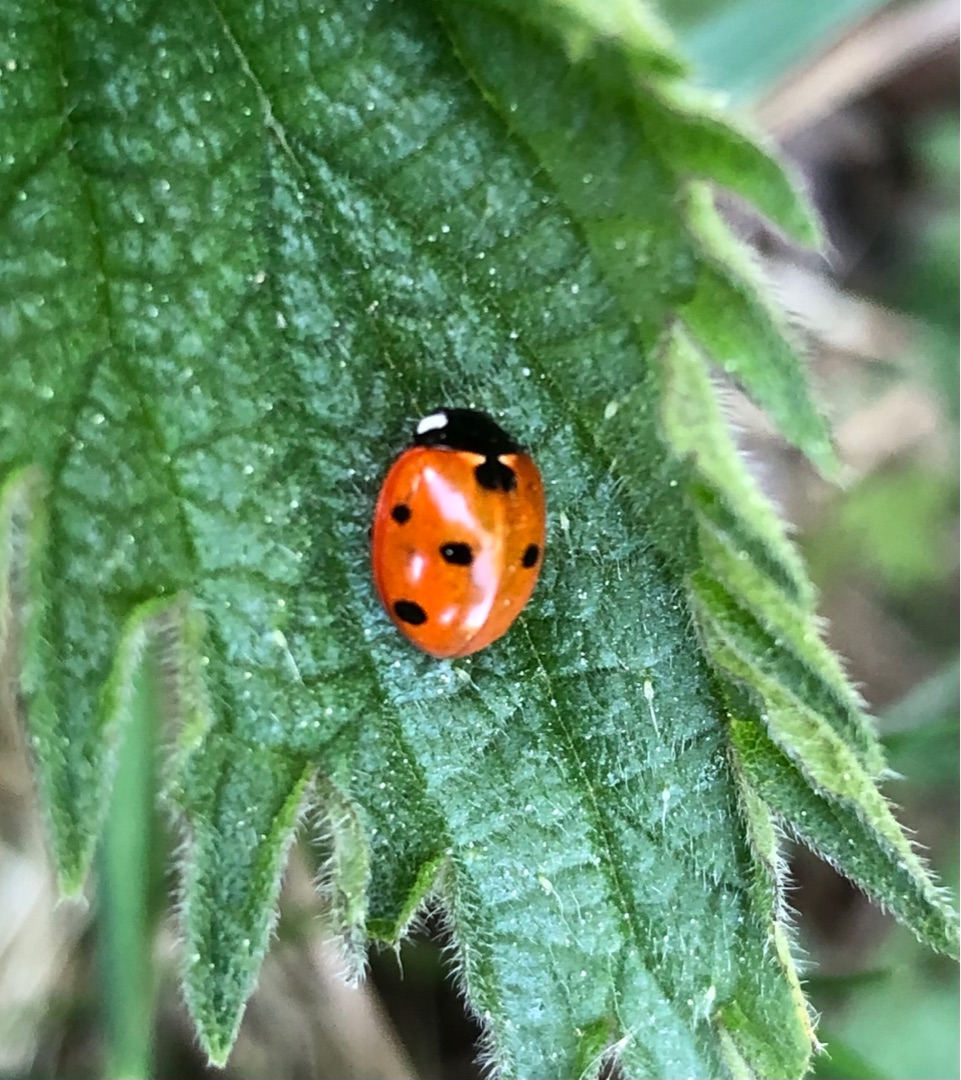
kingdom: Animalia
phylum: Arthropoda
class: Insecta
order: Coleoptera
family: Coccinellidae
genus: Coccinella
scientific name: Coccinella septempunctata
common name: Syvplettet mariehøne
